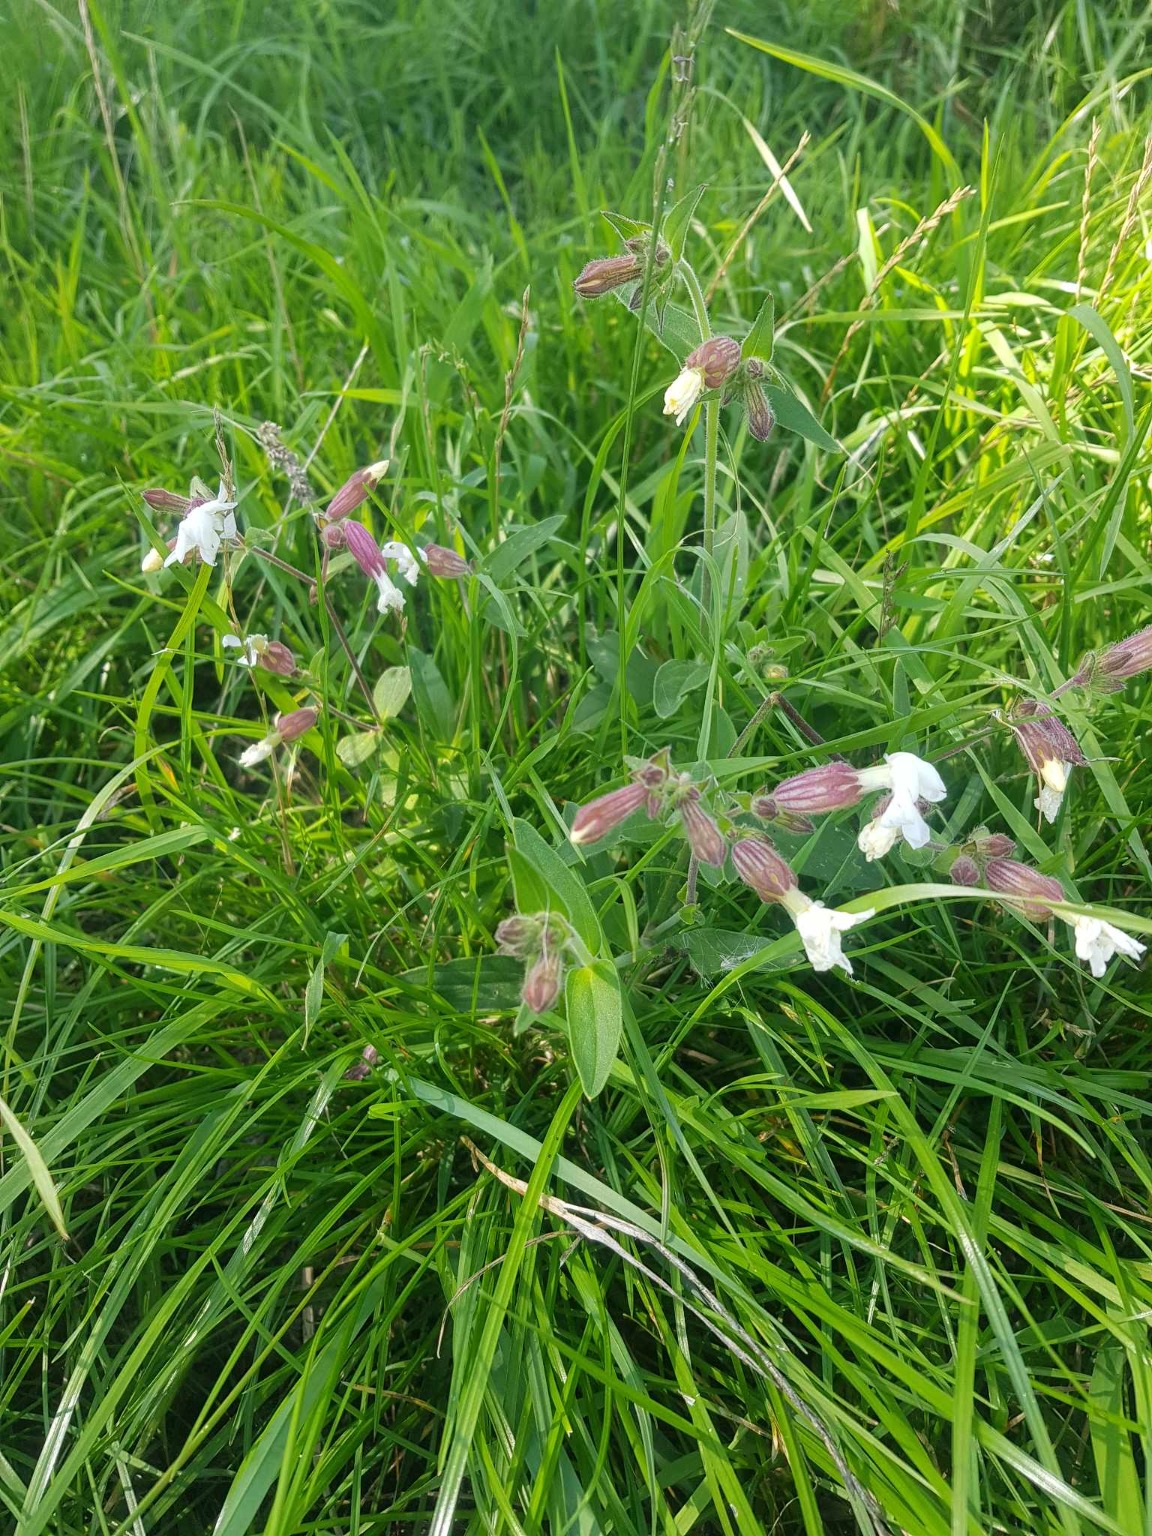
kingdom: Plantae
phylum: Tracheophyta
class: Magnoliopsida
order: Caryophyllales
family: Caryophyllaceae
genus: Silene
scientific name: Silene latifolia
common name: Aftenpragtstjerne
